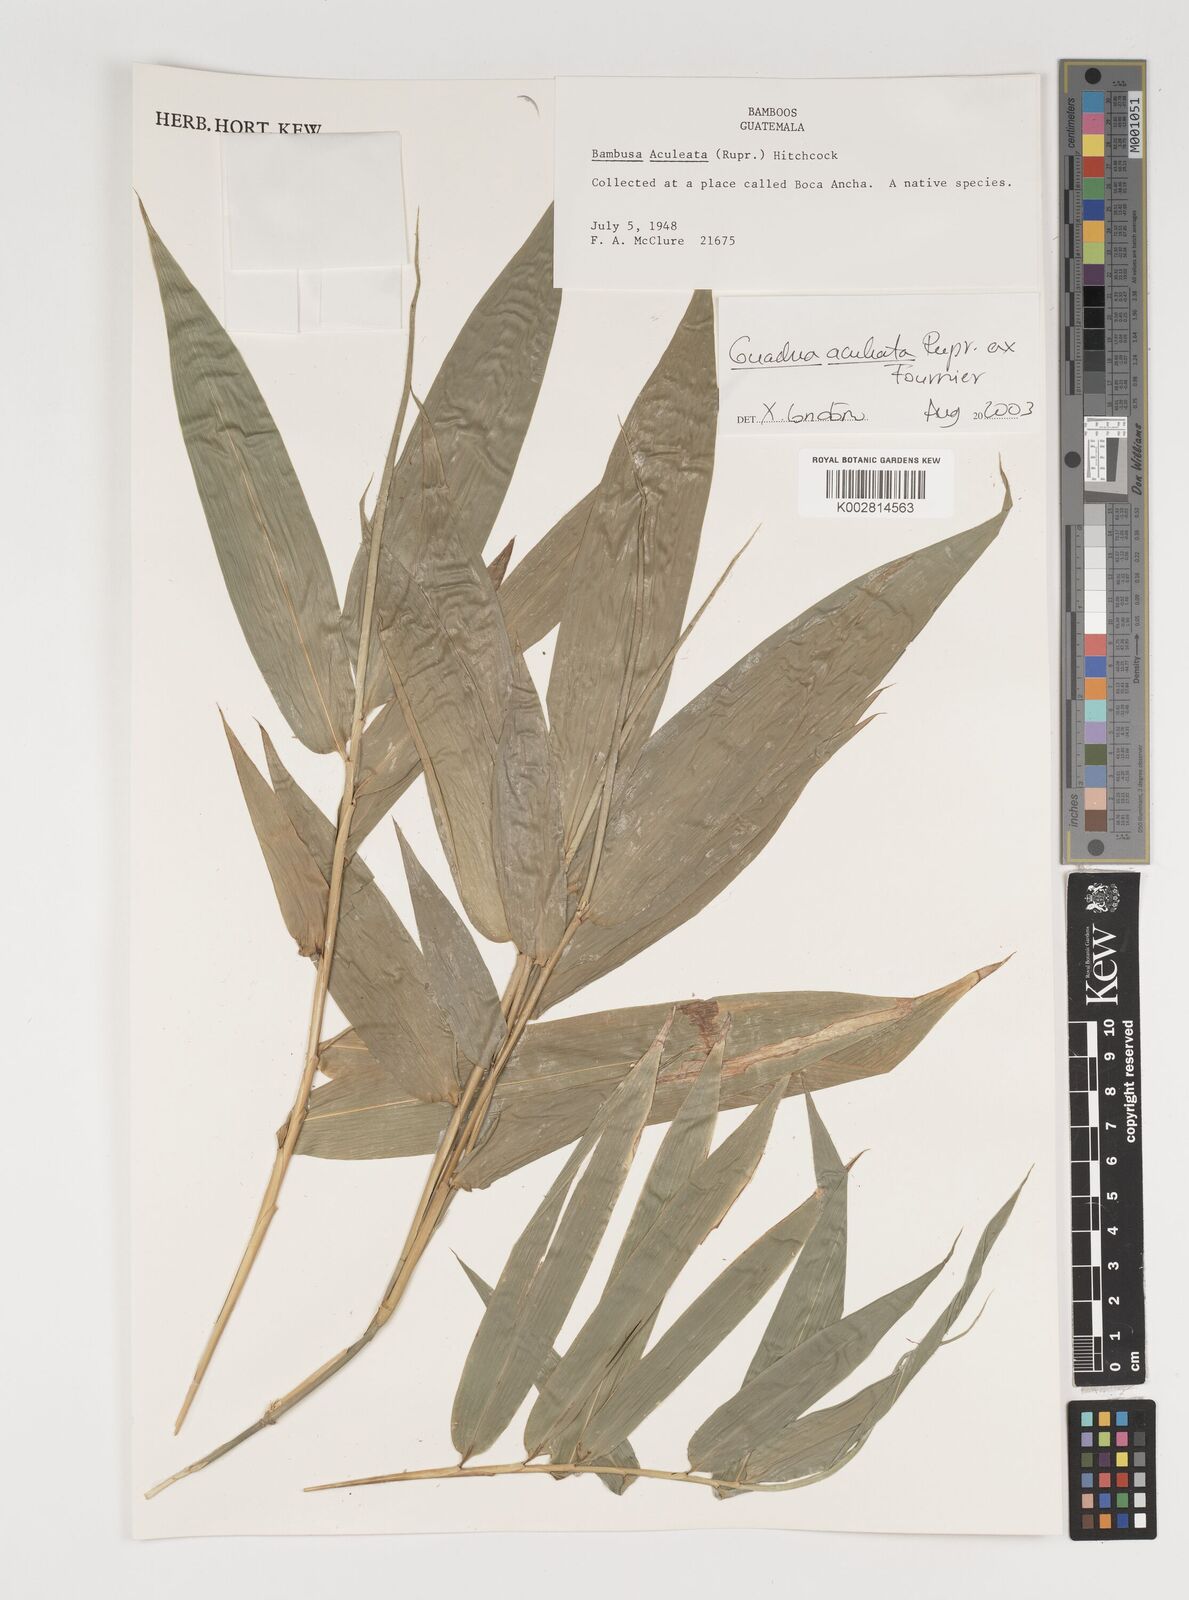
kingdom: Plantae
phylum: Tracheophyta
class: Liliopsida
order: Poales
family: Poaceae
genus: Guadua
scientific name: Guadua aculeata
